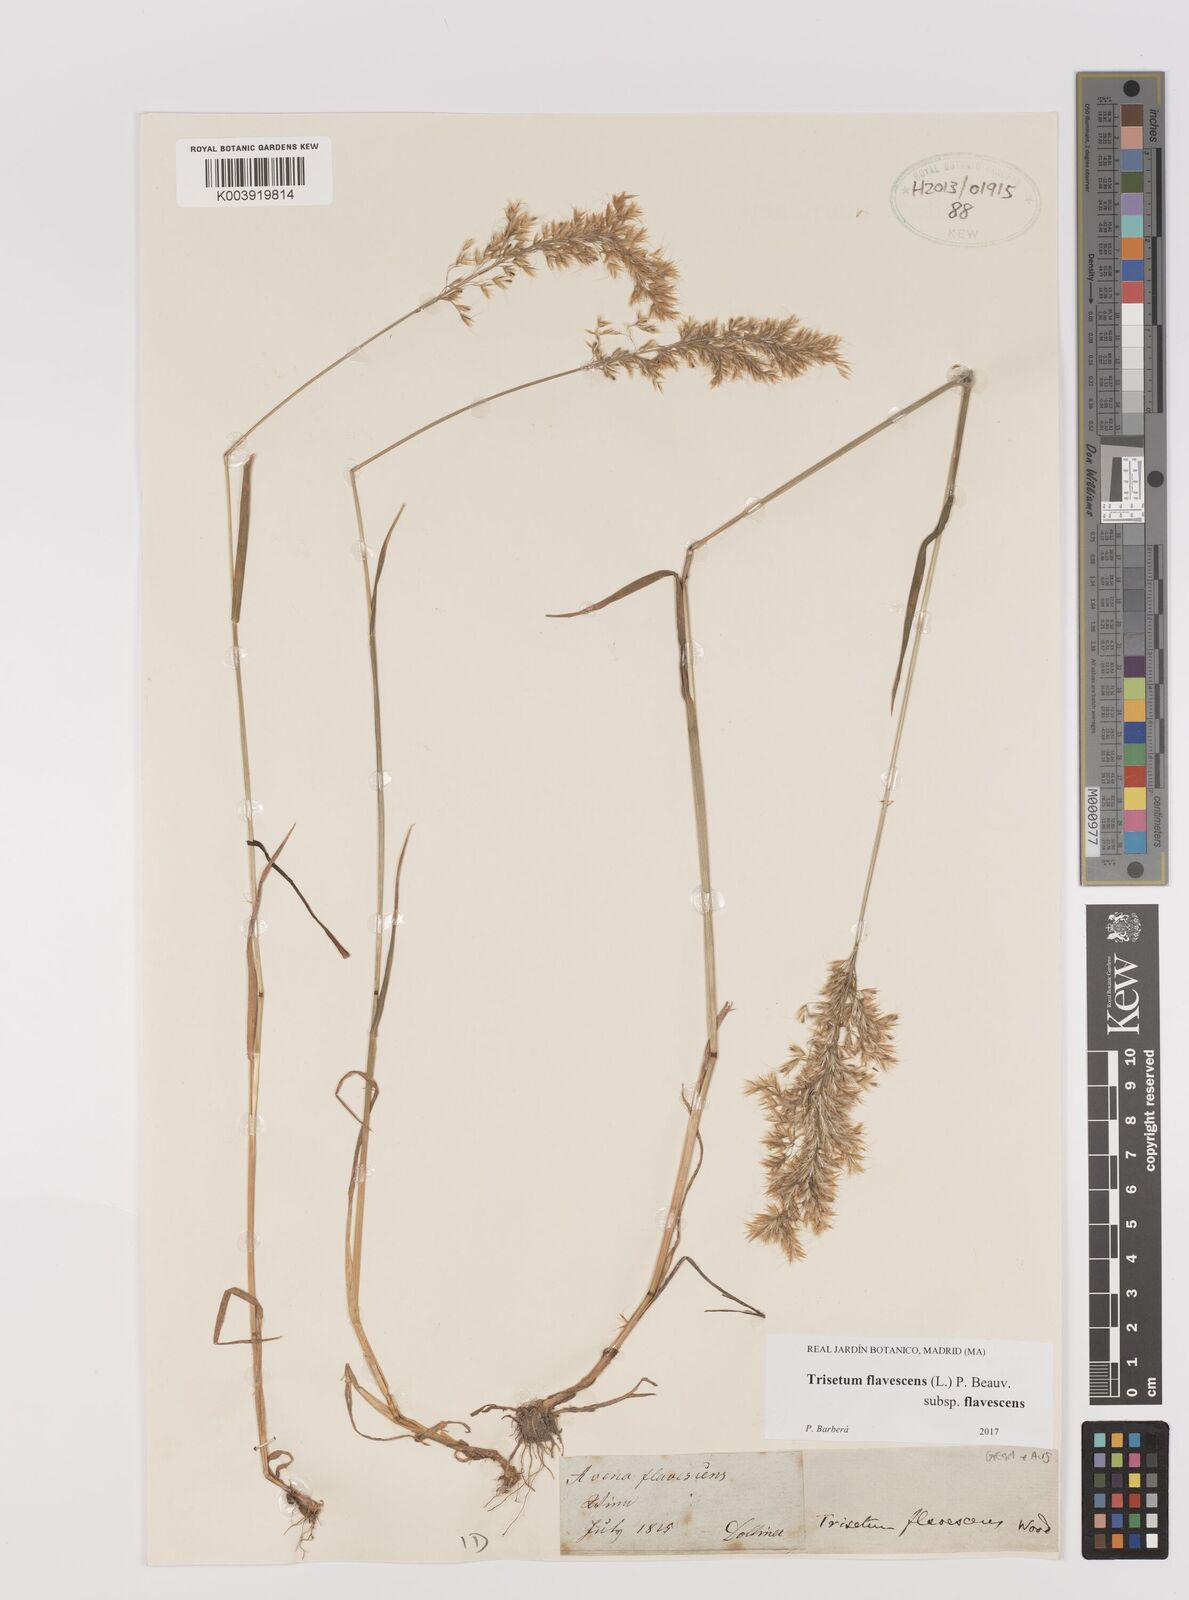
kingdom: Plantae
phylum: Tracheophyta
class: Liliopsida
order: Poales
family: Poaceae
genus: Trisetum
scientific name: Trisetum flavescens
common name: Yellow oat-grass
